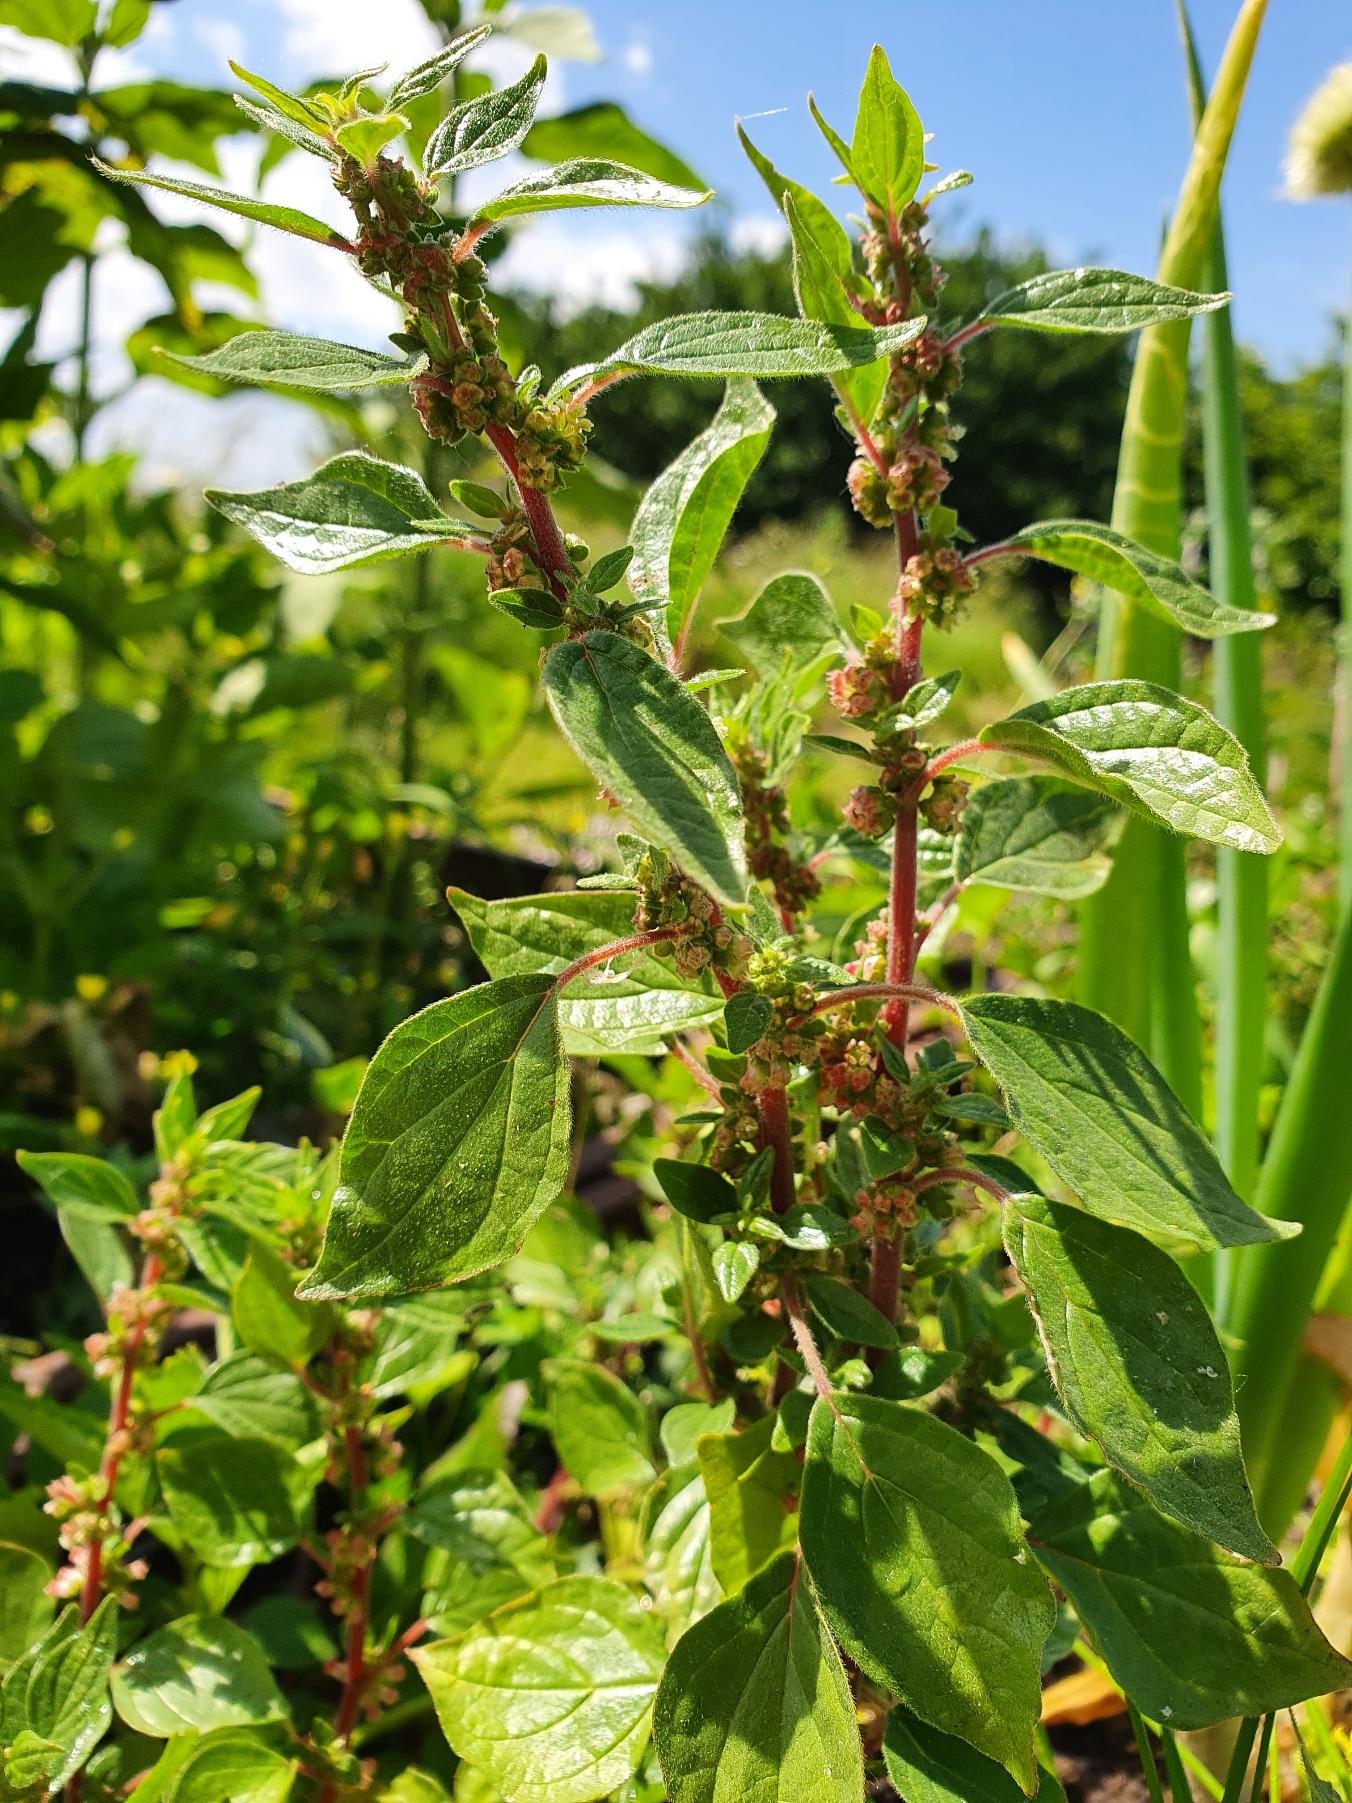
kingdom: Plantae
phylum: Tracheophyta
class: Magnoliopsida
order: Rosales
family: Urticaceae
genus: Parietaria
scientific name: Parietaria officinalis
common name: Almindelig springknap
